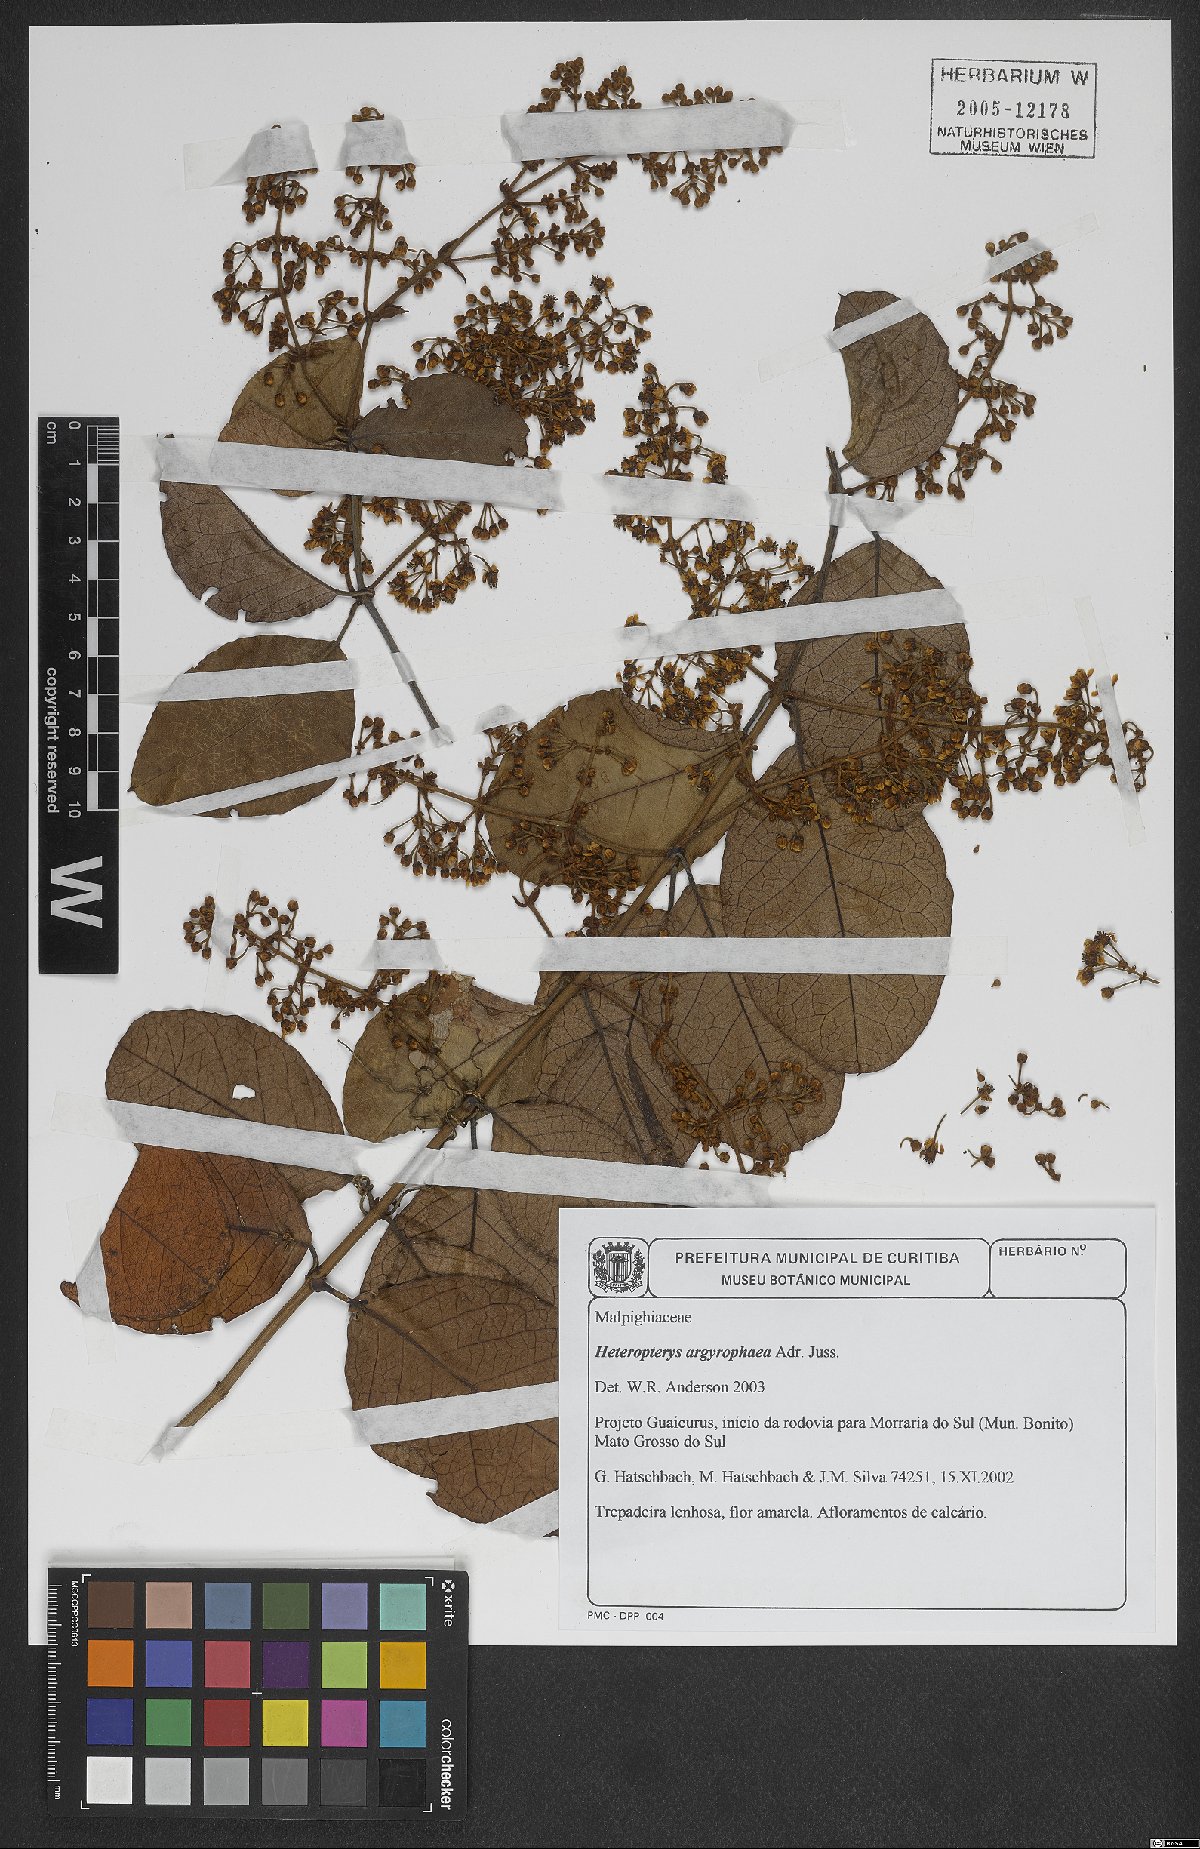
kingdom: Plantae
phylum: Tracheophyta
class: Magnoliopsida
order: Malpighiales
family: Malpighiaceae
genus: Heteropterys
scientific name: Heteropterys argyrophaea
